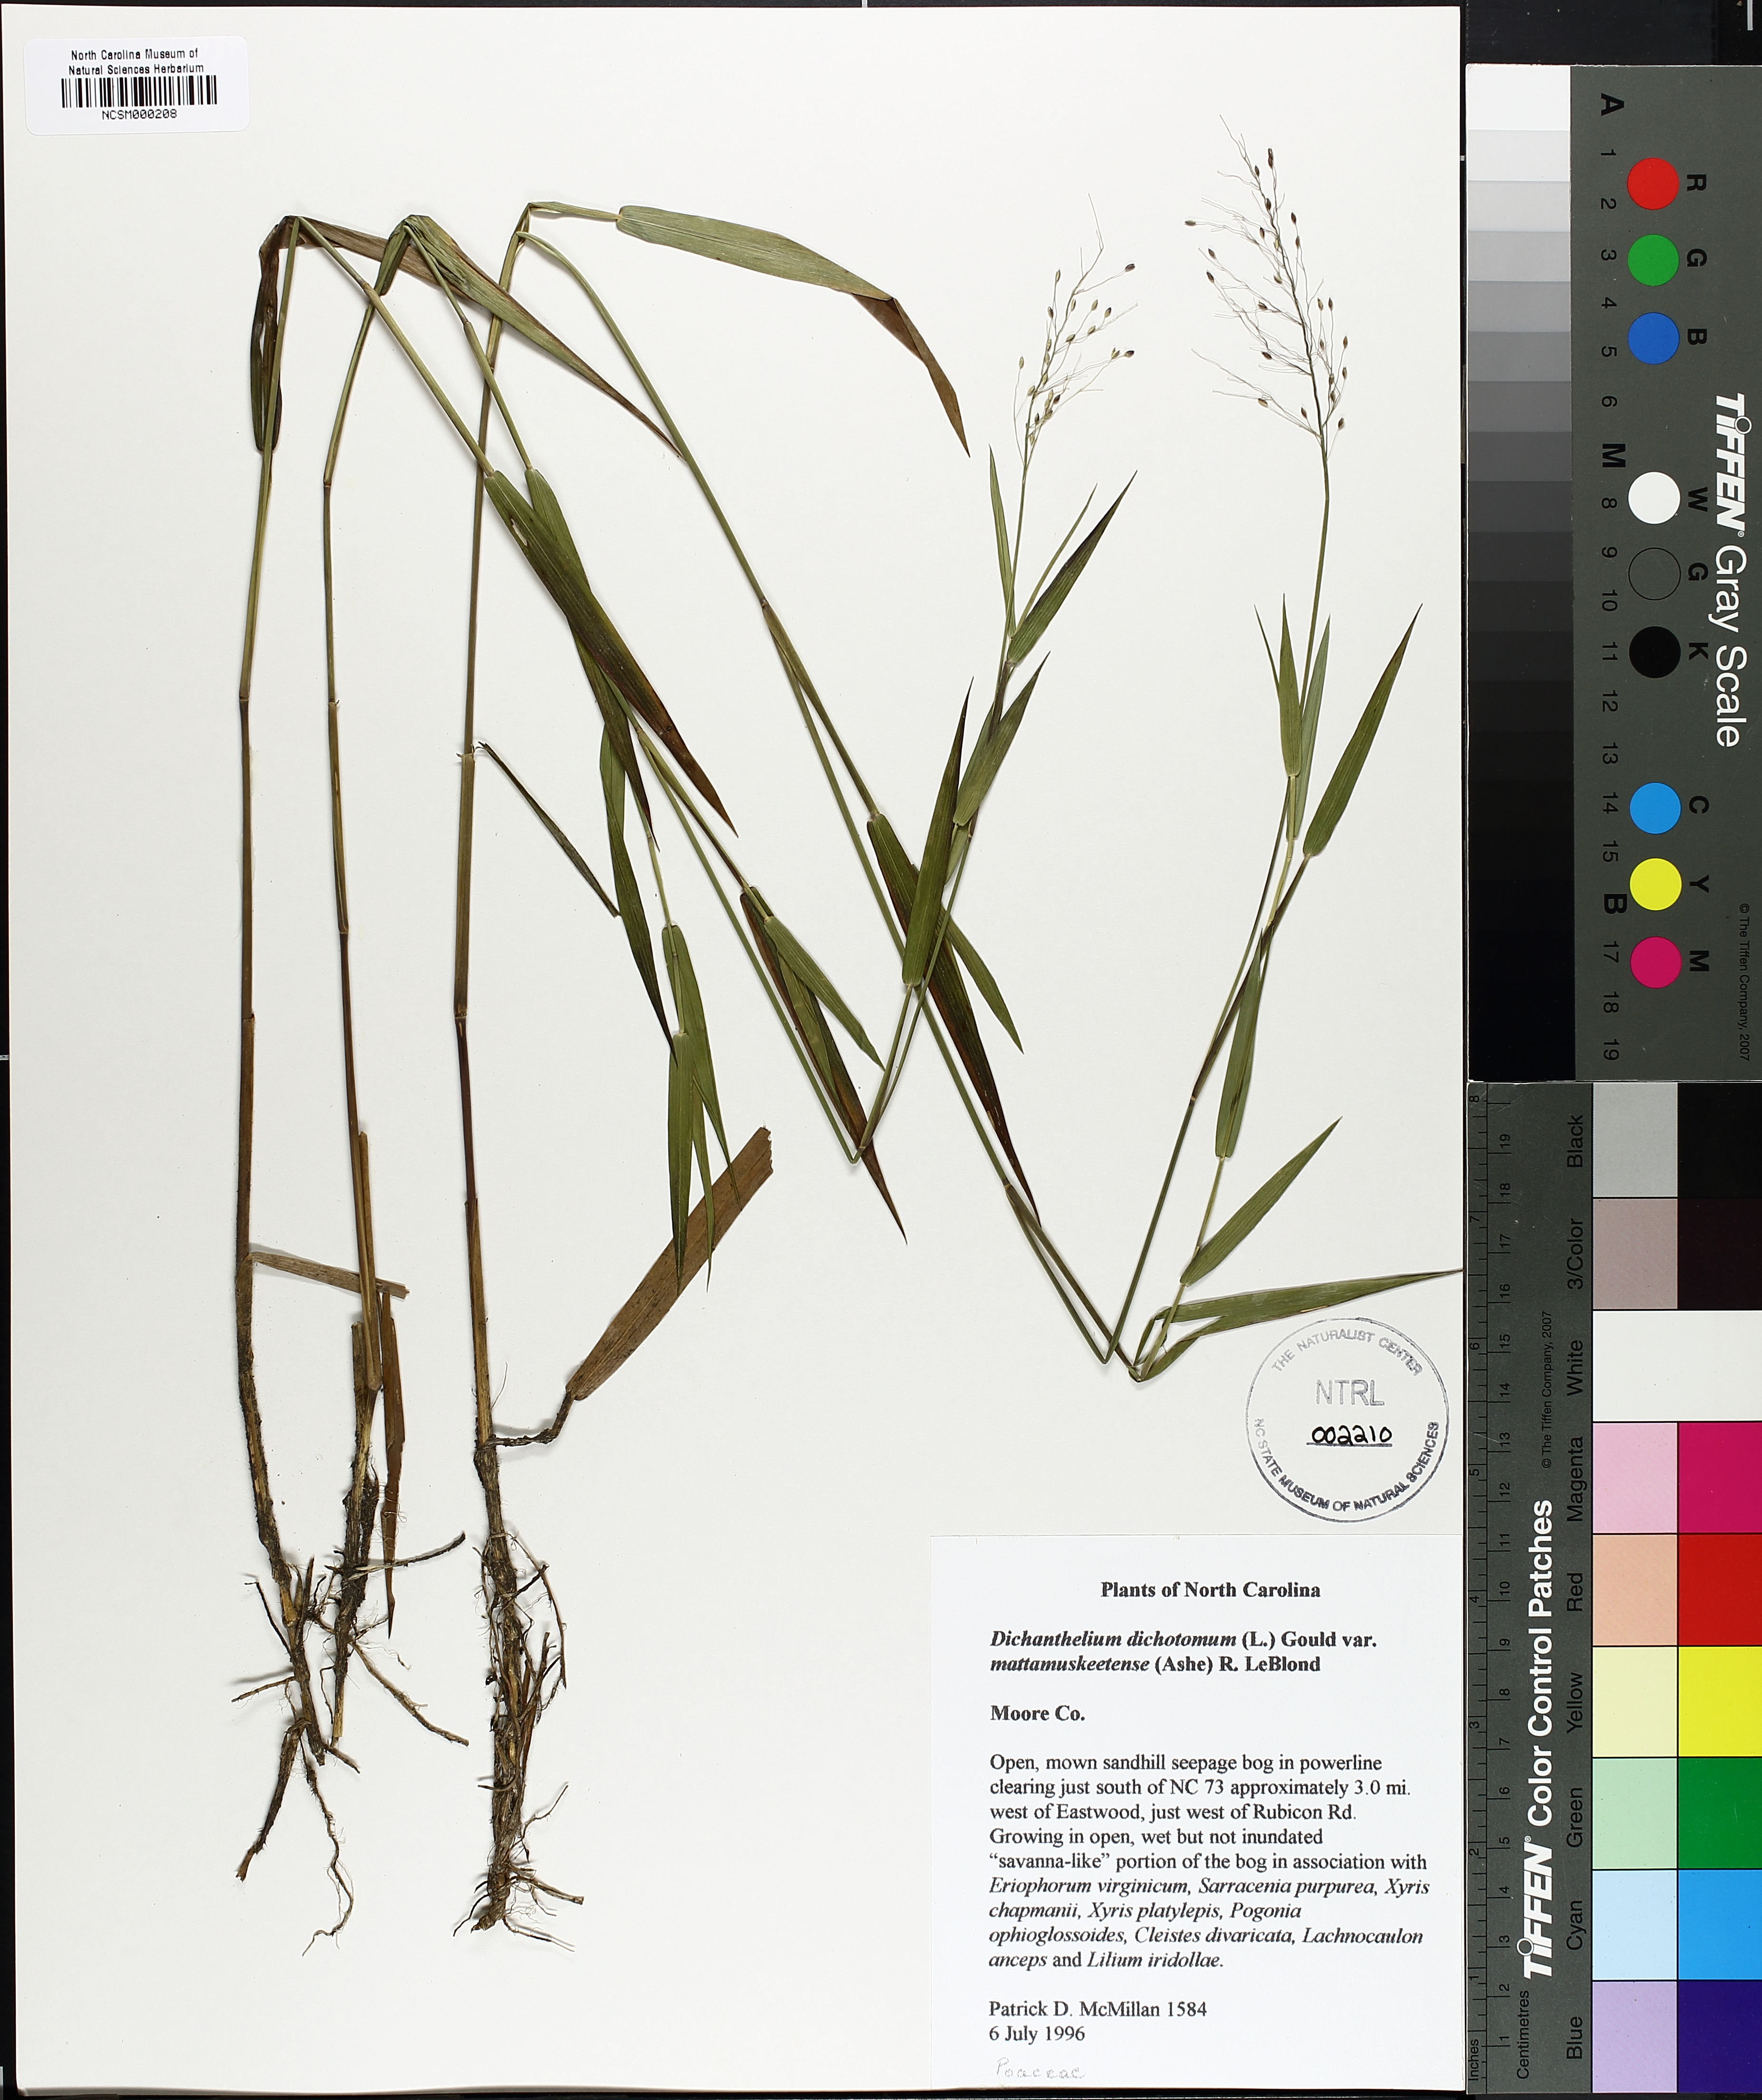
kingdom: Plantae
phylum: Tracheophyta
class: Liliopsida
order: Poales
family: Poaceae
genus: Dichanthelium
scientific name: Dichanthelium mattamuskeetense
